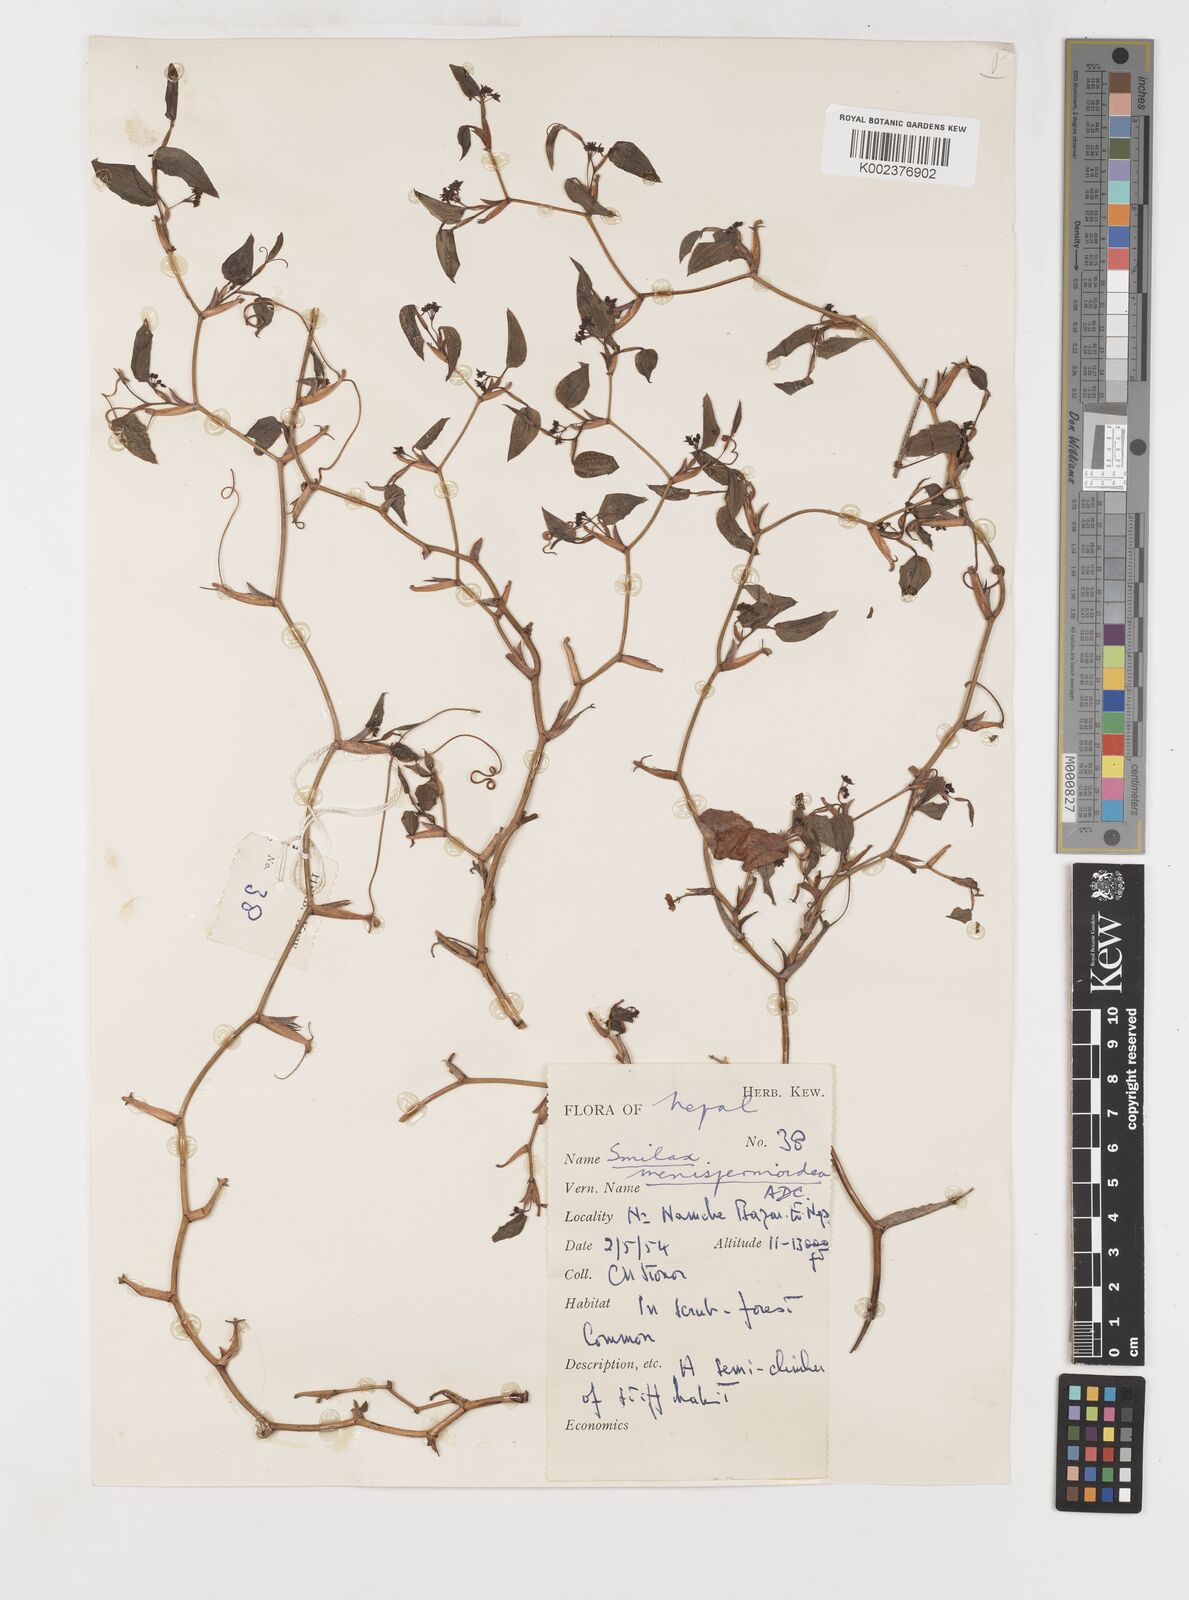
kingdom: Plantae
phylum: Tracheophyta
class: Liliopsida
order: Liliales
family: Smilacaceae
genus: Smilax
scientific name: Smilax menispermoidea
